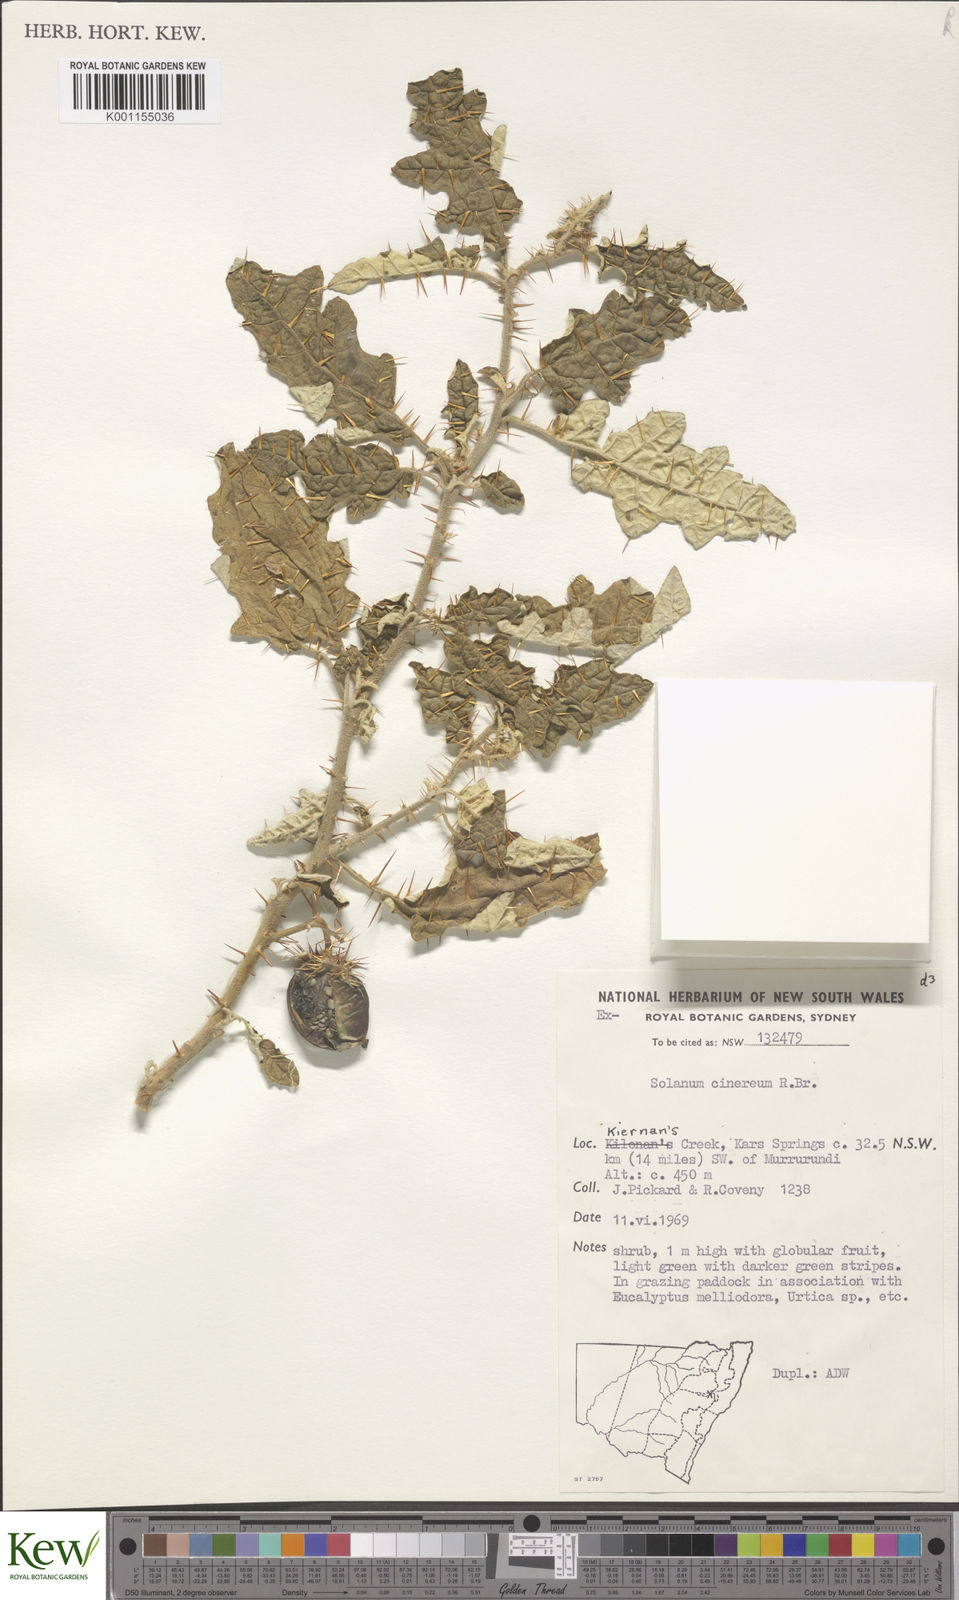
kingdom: Plantae
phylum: Tracheophyta
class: Magnoliopsida
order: Solanales
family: Solanaceae
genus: Solanum
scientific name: Solanum cinereum
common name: Narrawa-bur
